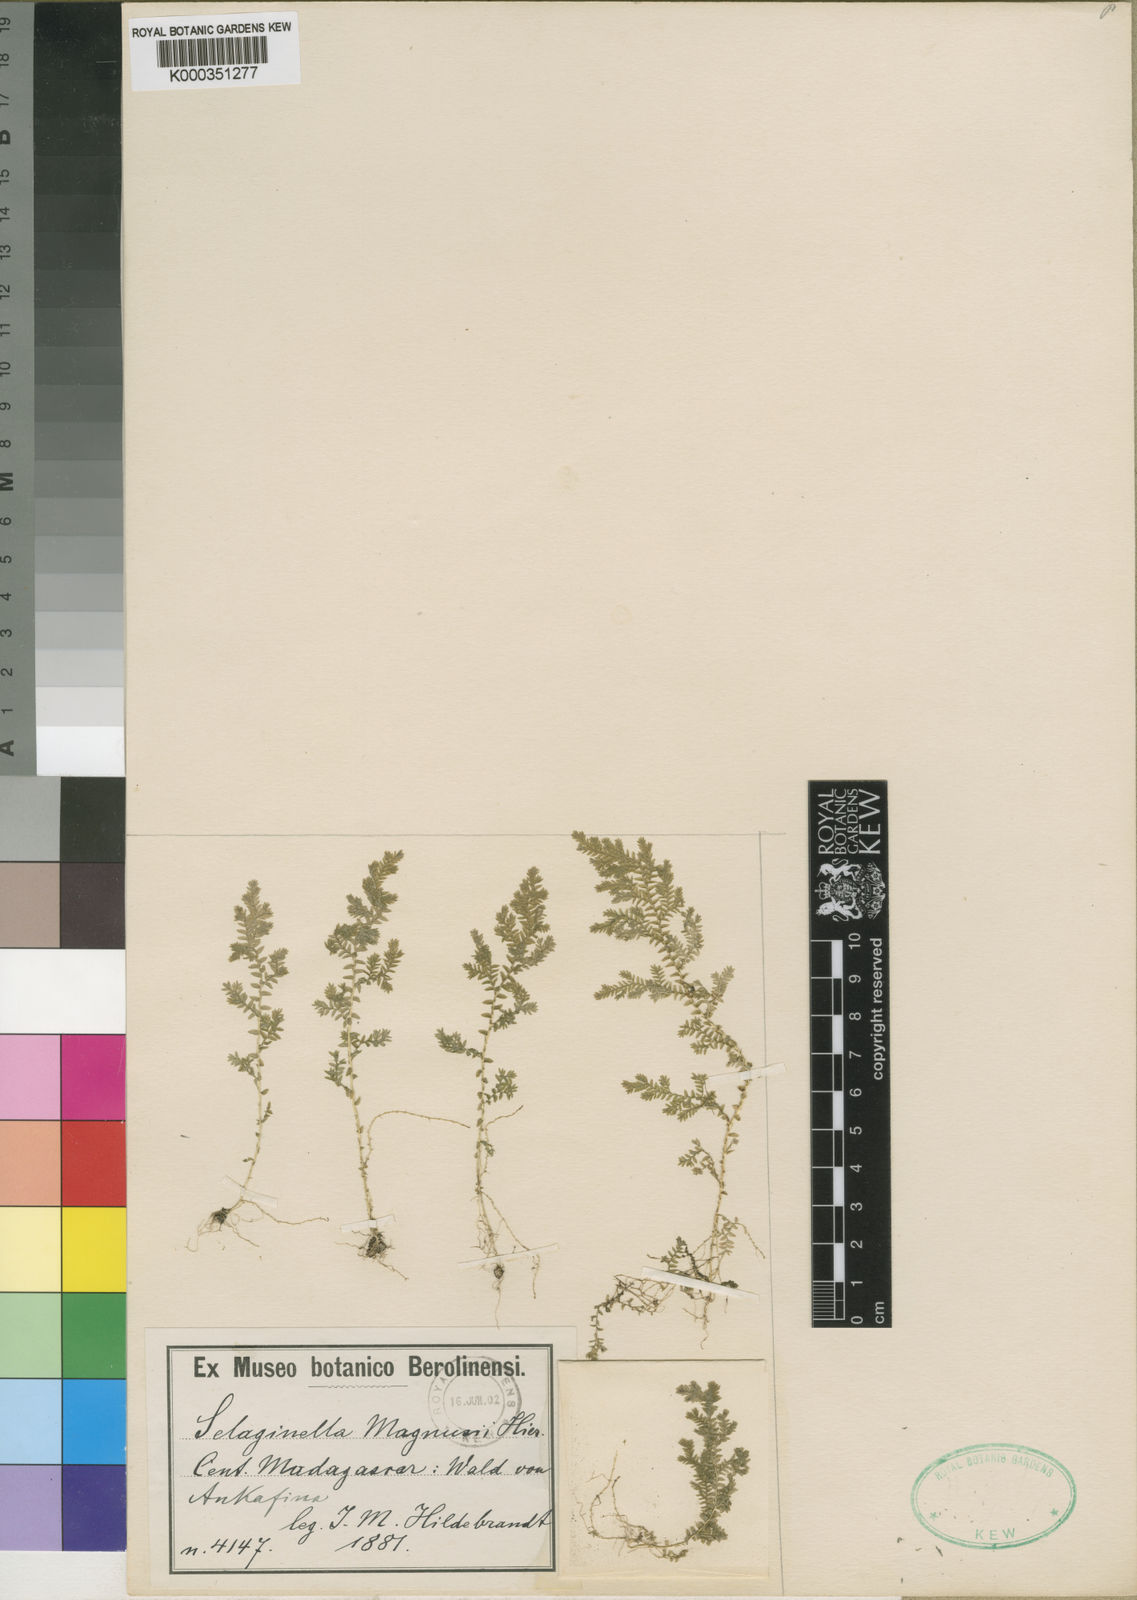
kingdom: Plantae
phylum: Tracheophyta
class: Lycopodiopsida
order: Selaginellales
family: Selaginellaceae
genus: Selaginella
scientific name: Selaginella goudotiana
